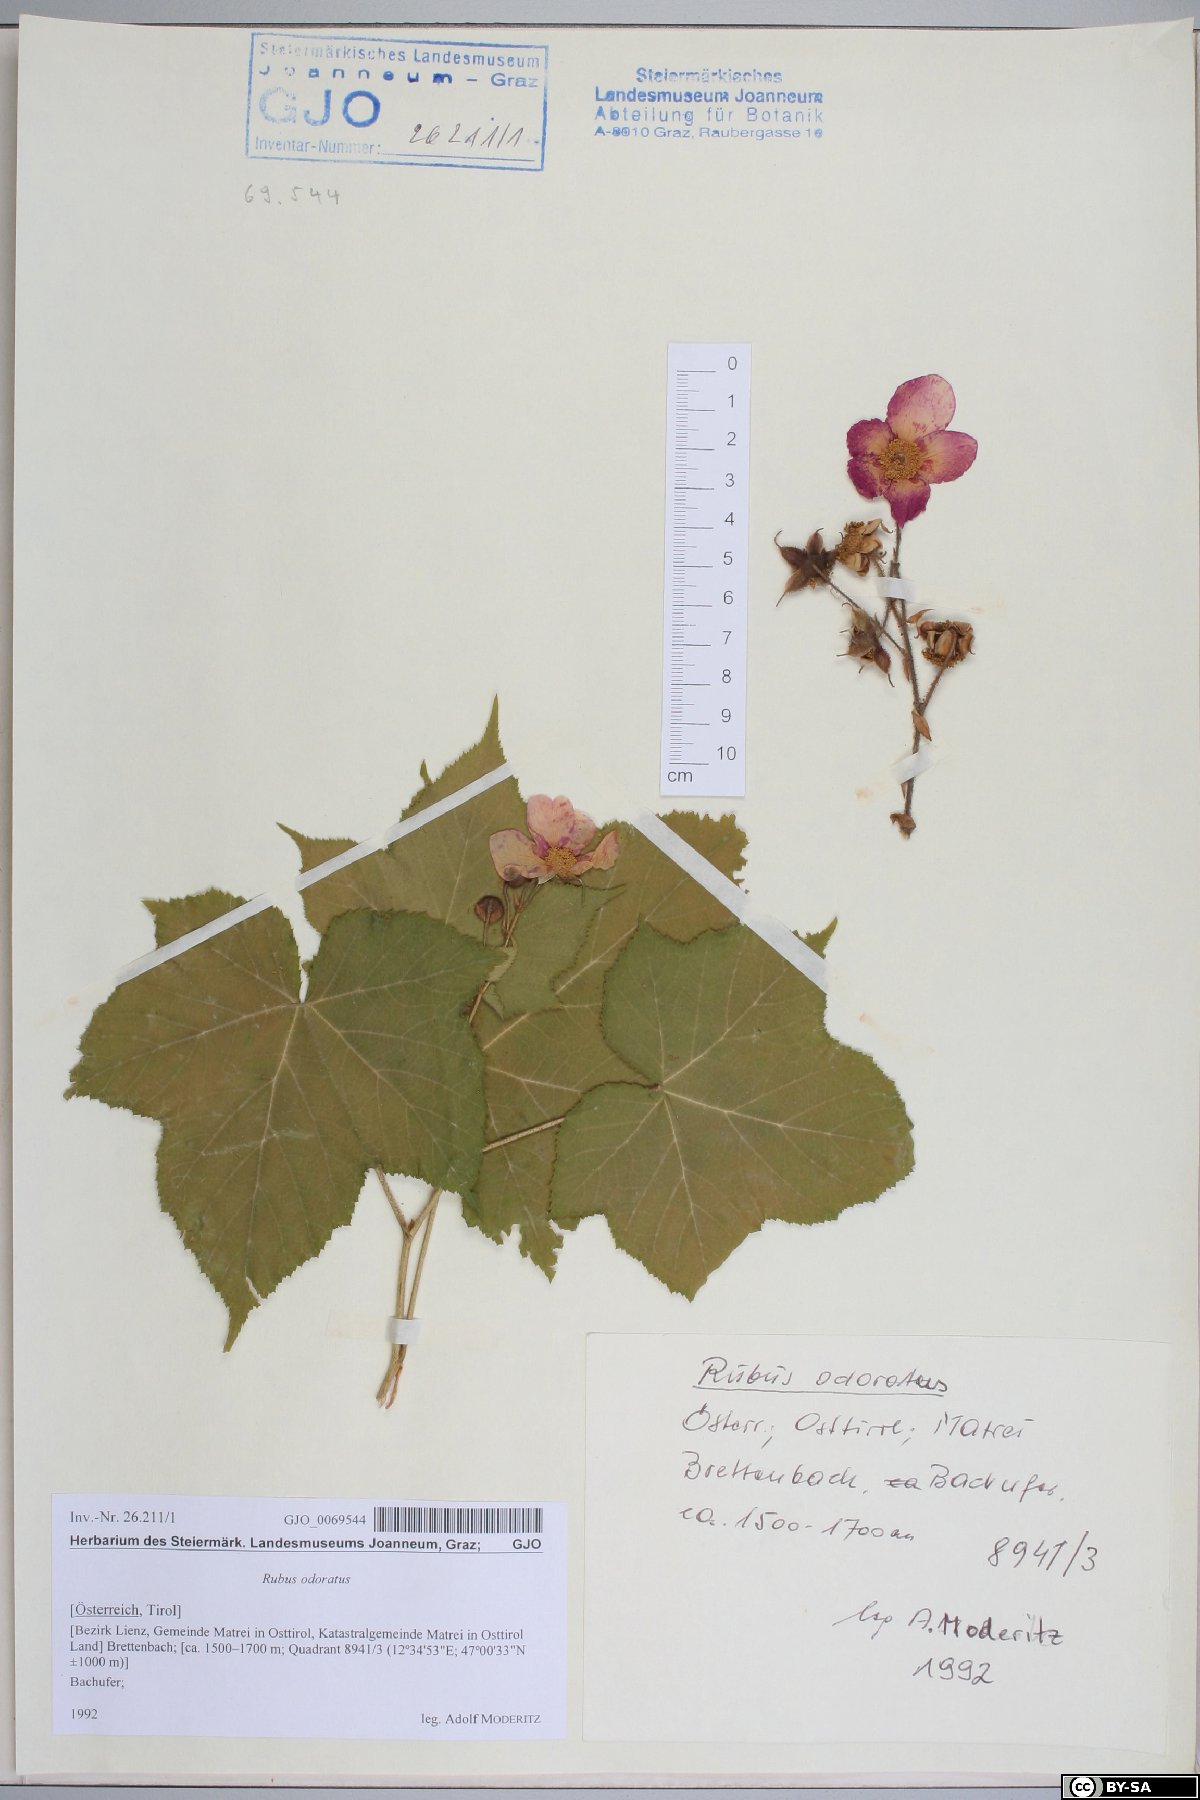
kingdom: Plantae
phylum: Tracheophyta
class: Magnoliopsida
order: Rosales
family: Rosaceae
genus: Rubus
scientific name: Rubus odoratus
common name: Purple-flowered raspberry
